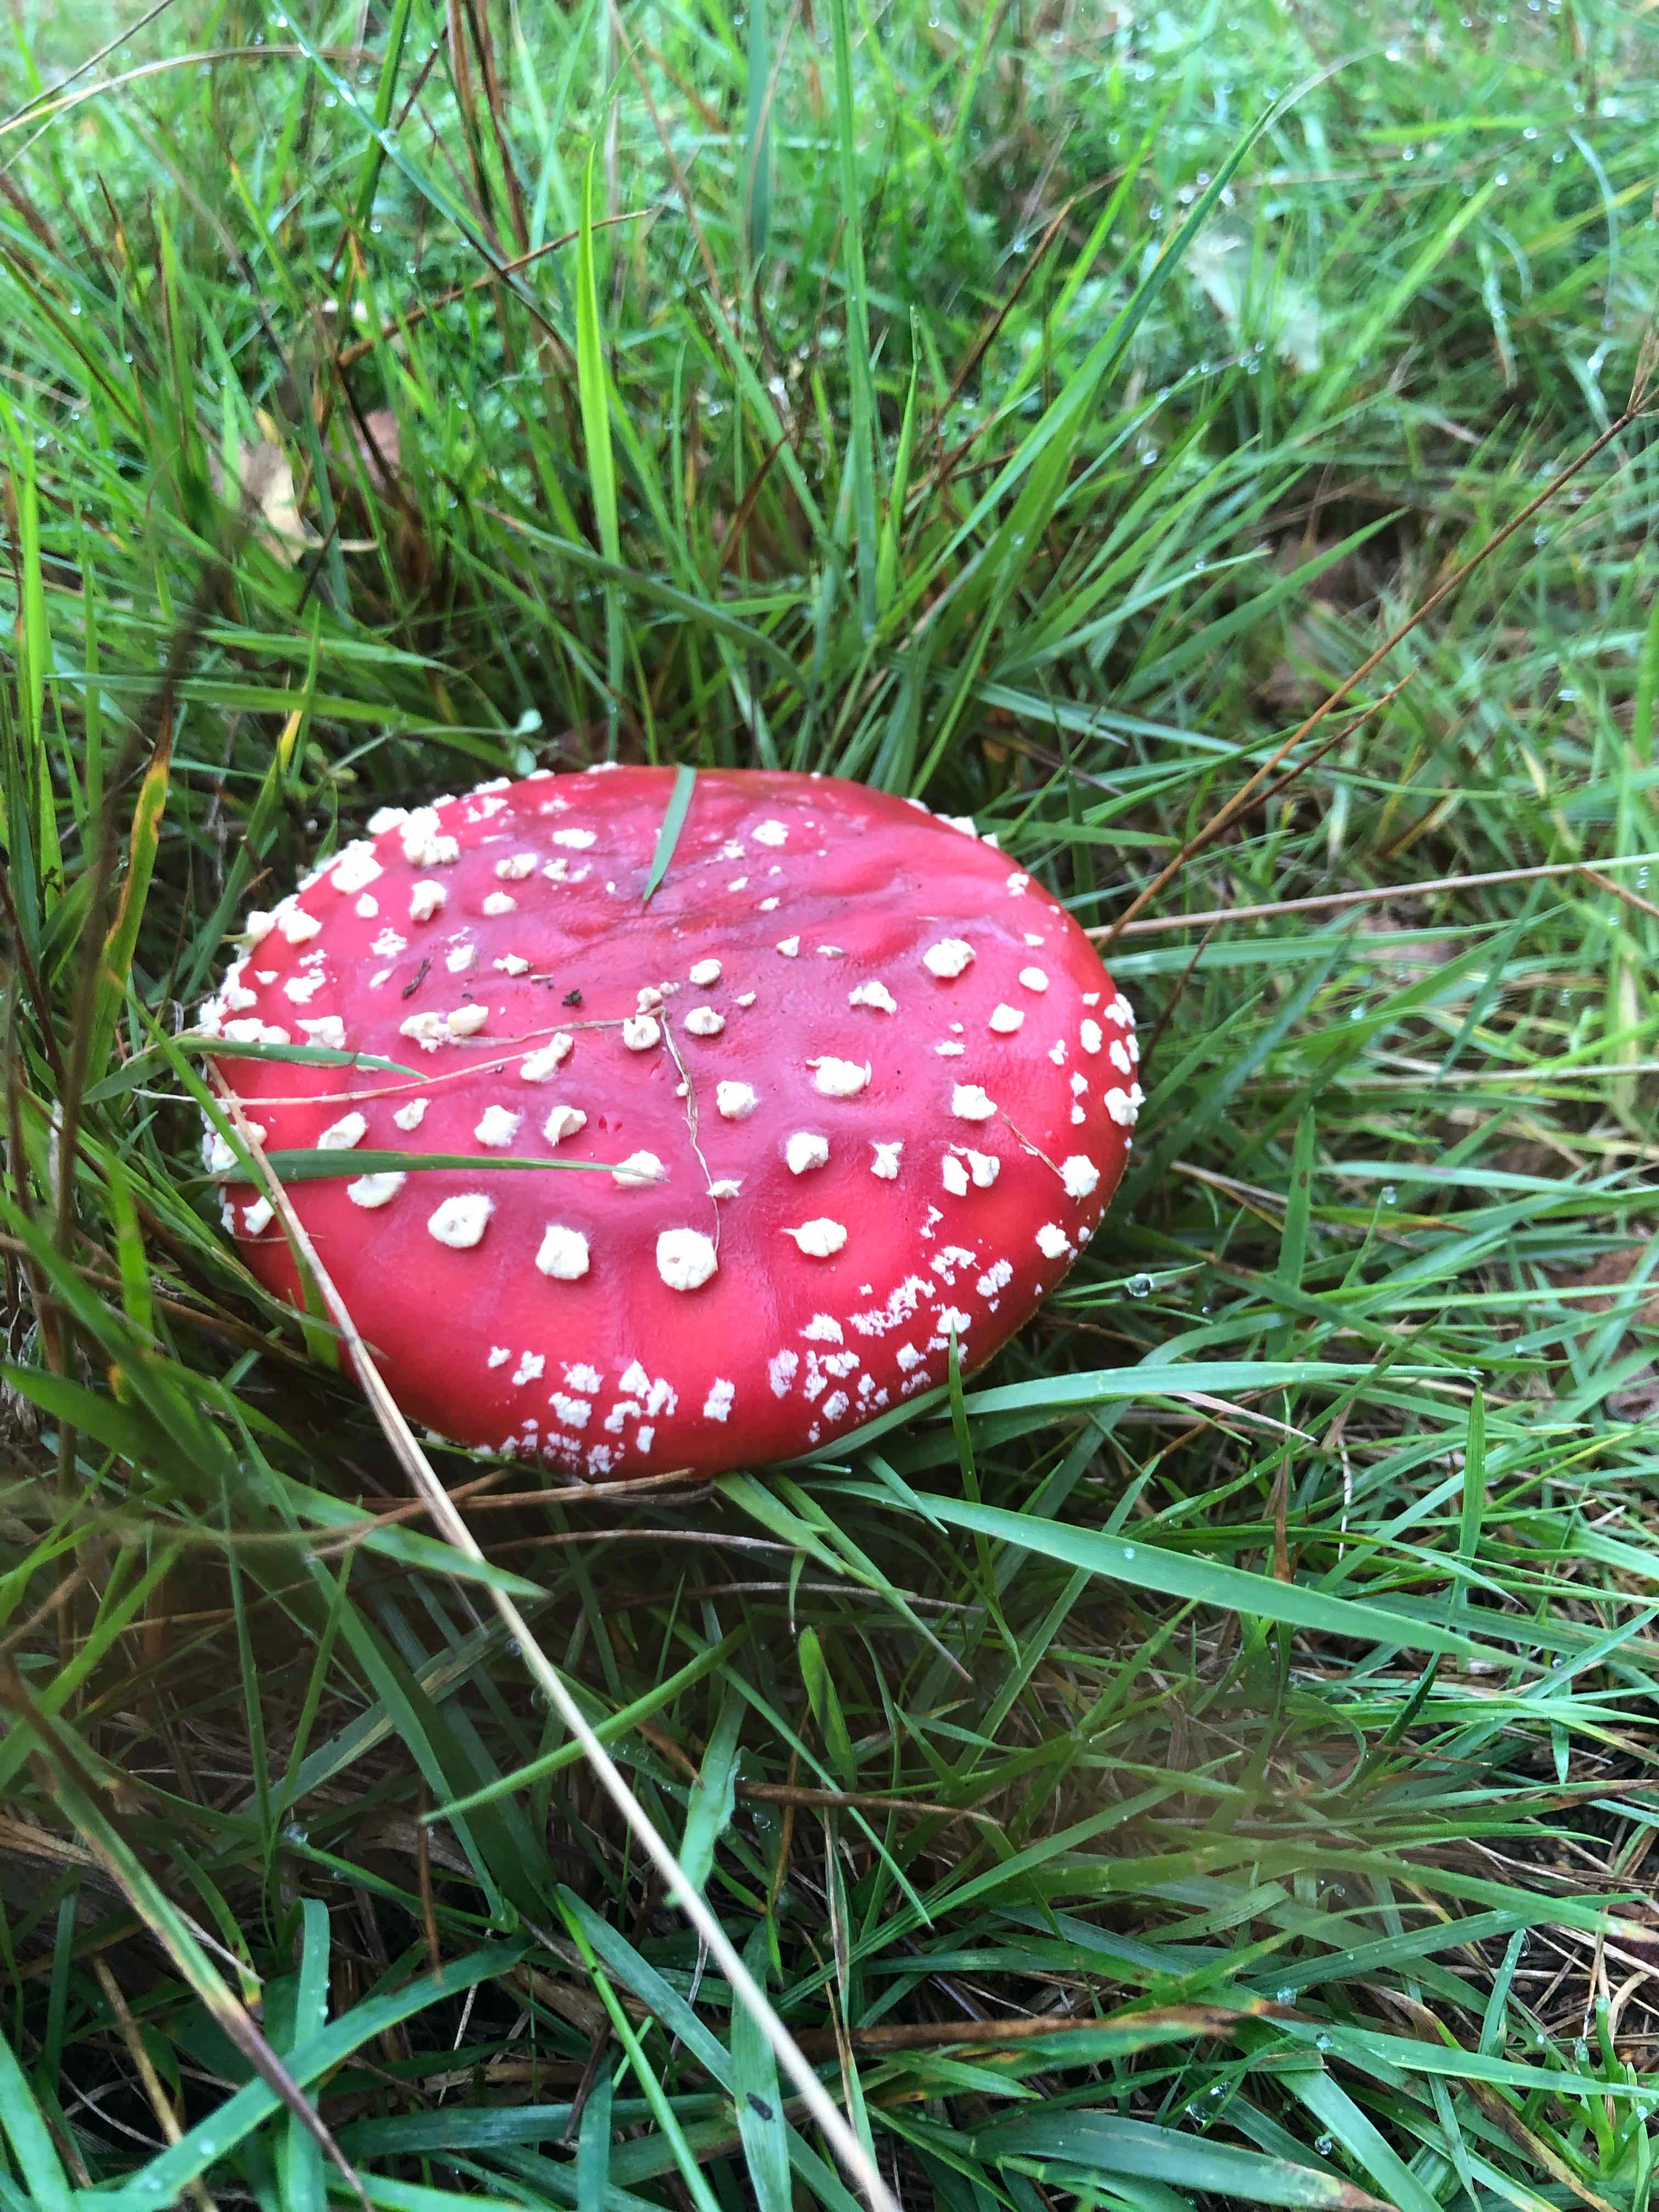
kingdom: Fungi
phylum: Basidiomycota
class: Agaricomycetes
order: Agaricales
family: Amanitaceae
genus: Amanita
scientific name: Amanita muscaria
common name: rød fluesvamp
